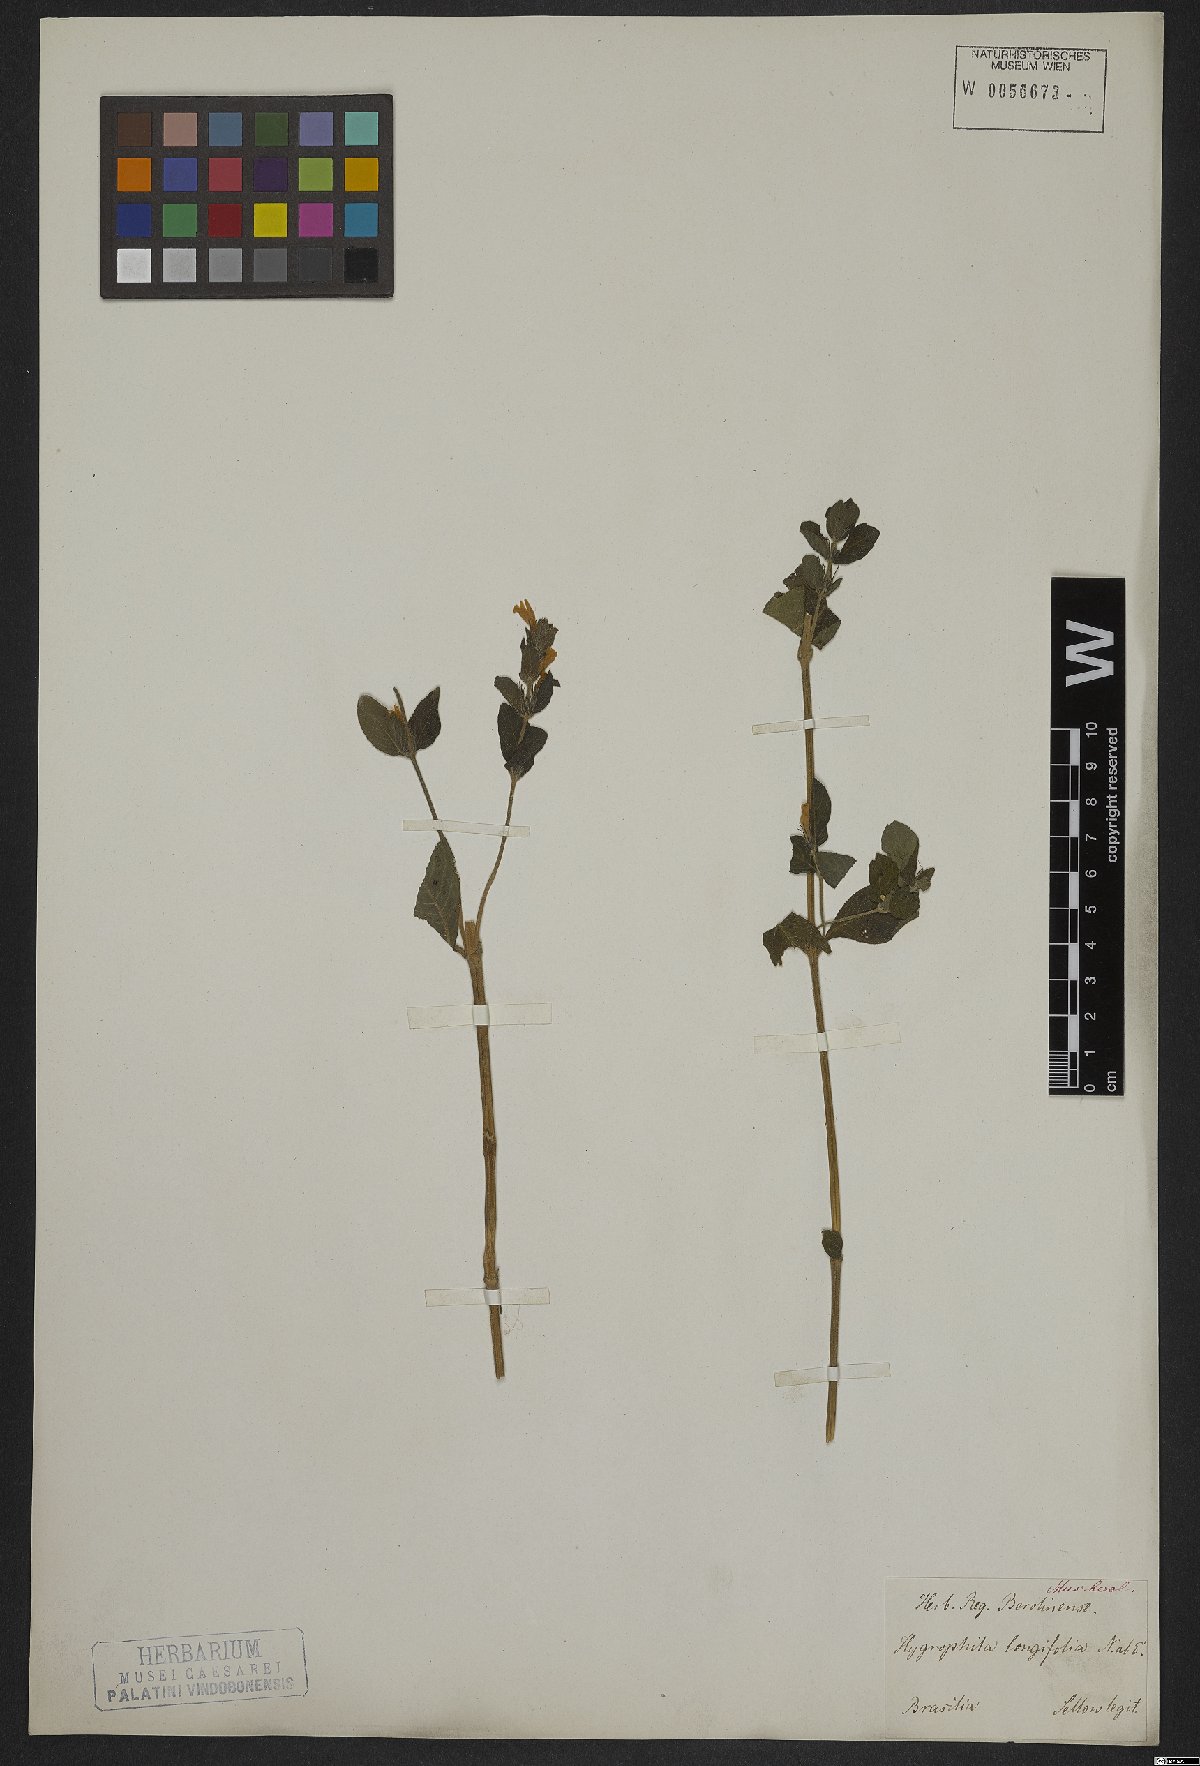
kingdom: Plantae
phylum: Tracheophyta
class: Magnoliopsida
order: Lamiales
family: Acanthaceae
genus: Hygrophila
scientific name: Hygrophila costata
